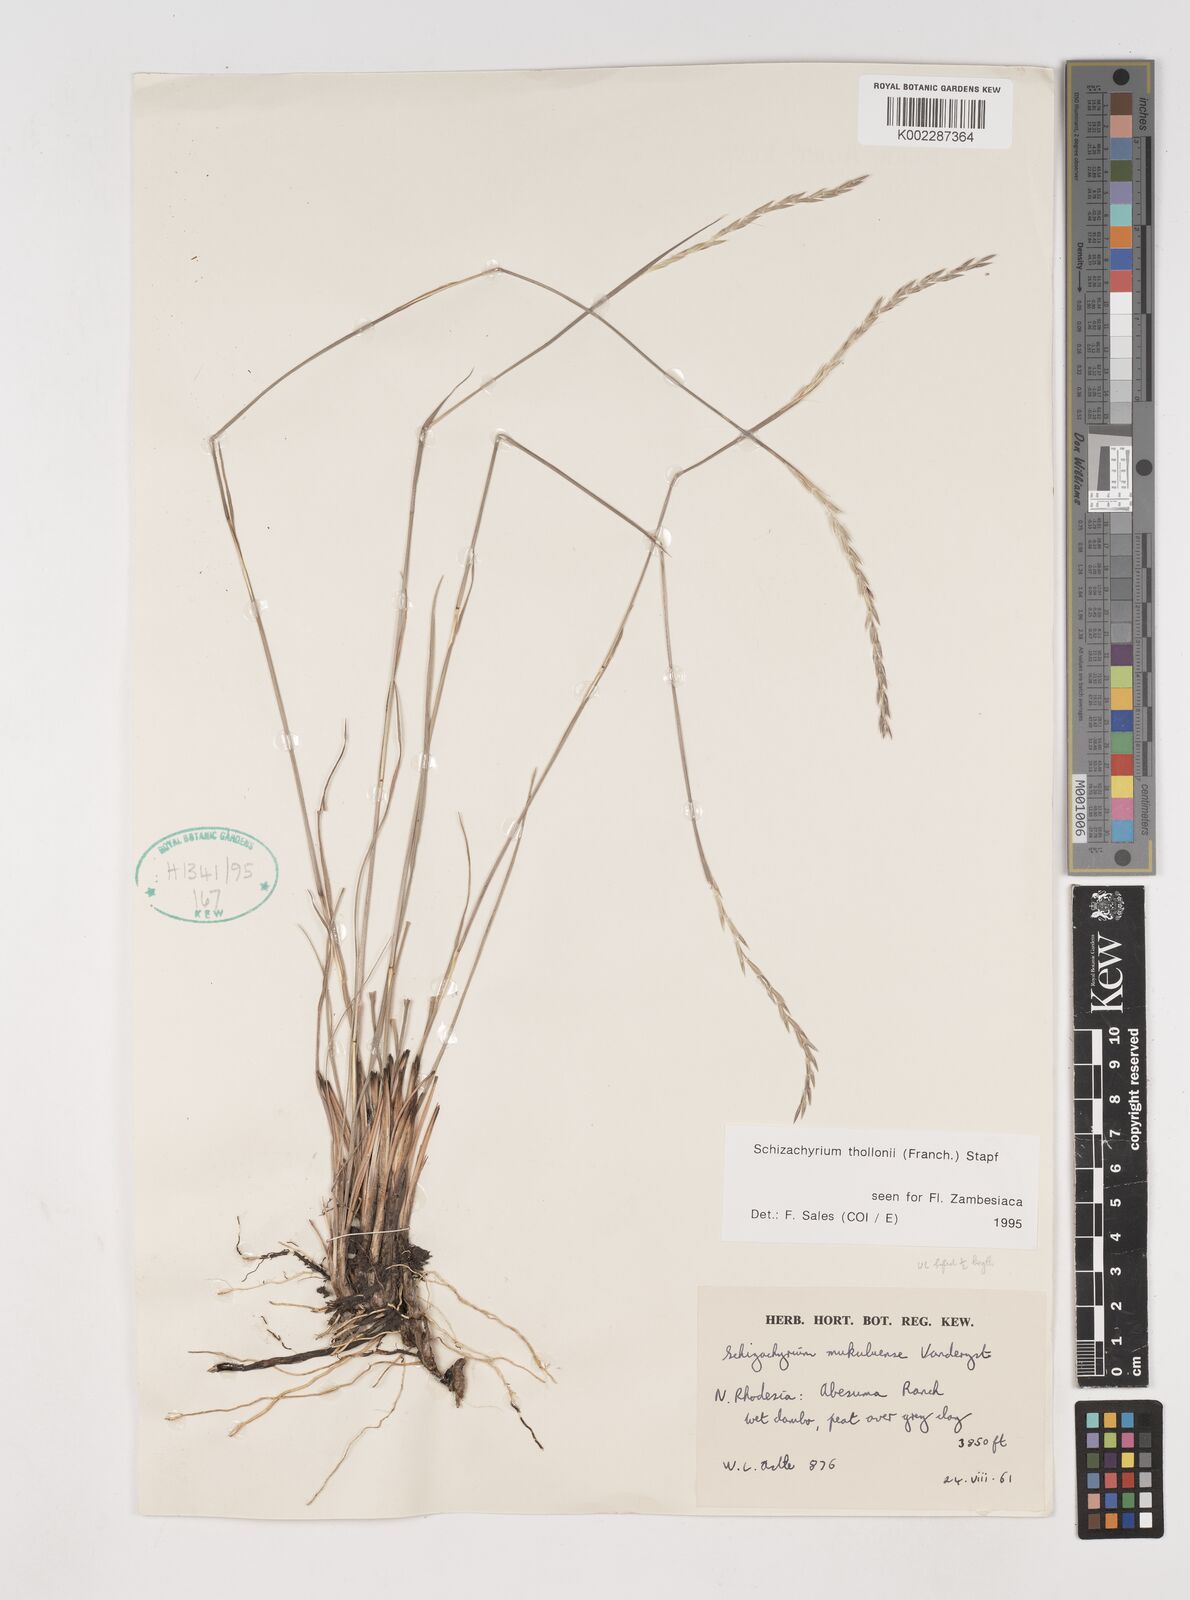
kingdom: Plantae
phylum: Tracheophyta
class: Liliopsida
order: Poales
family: Poaceae
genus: Schizachyrium
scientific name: Schizachyrium thollonii
